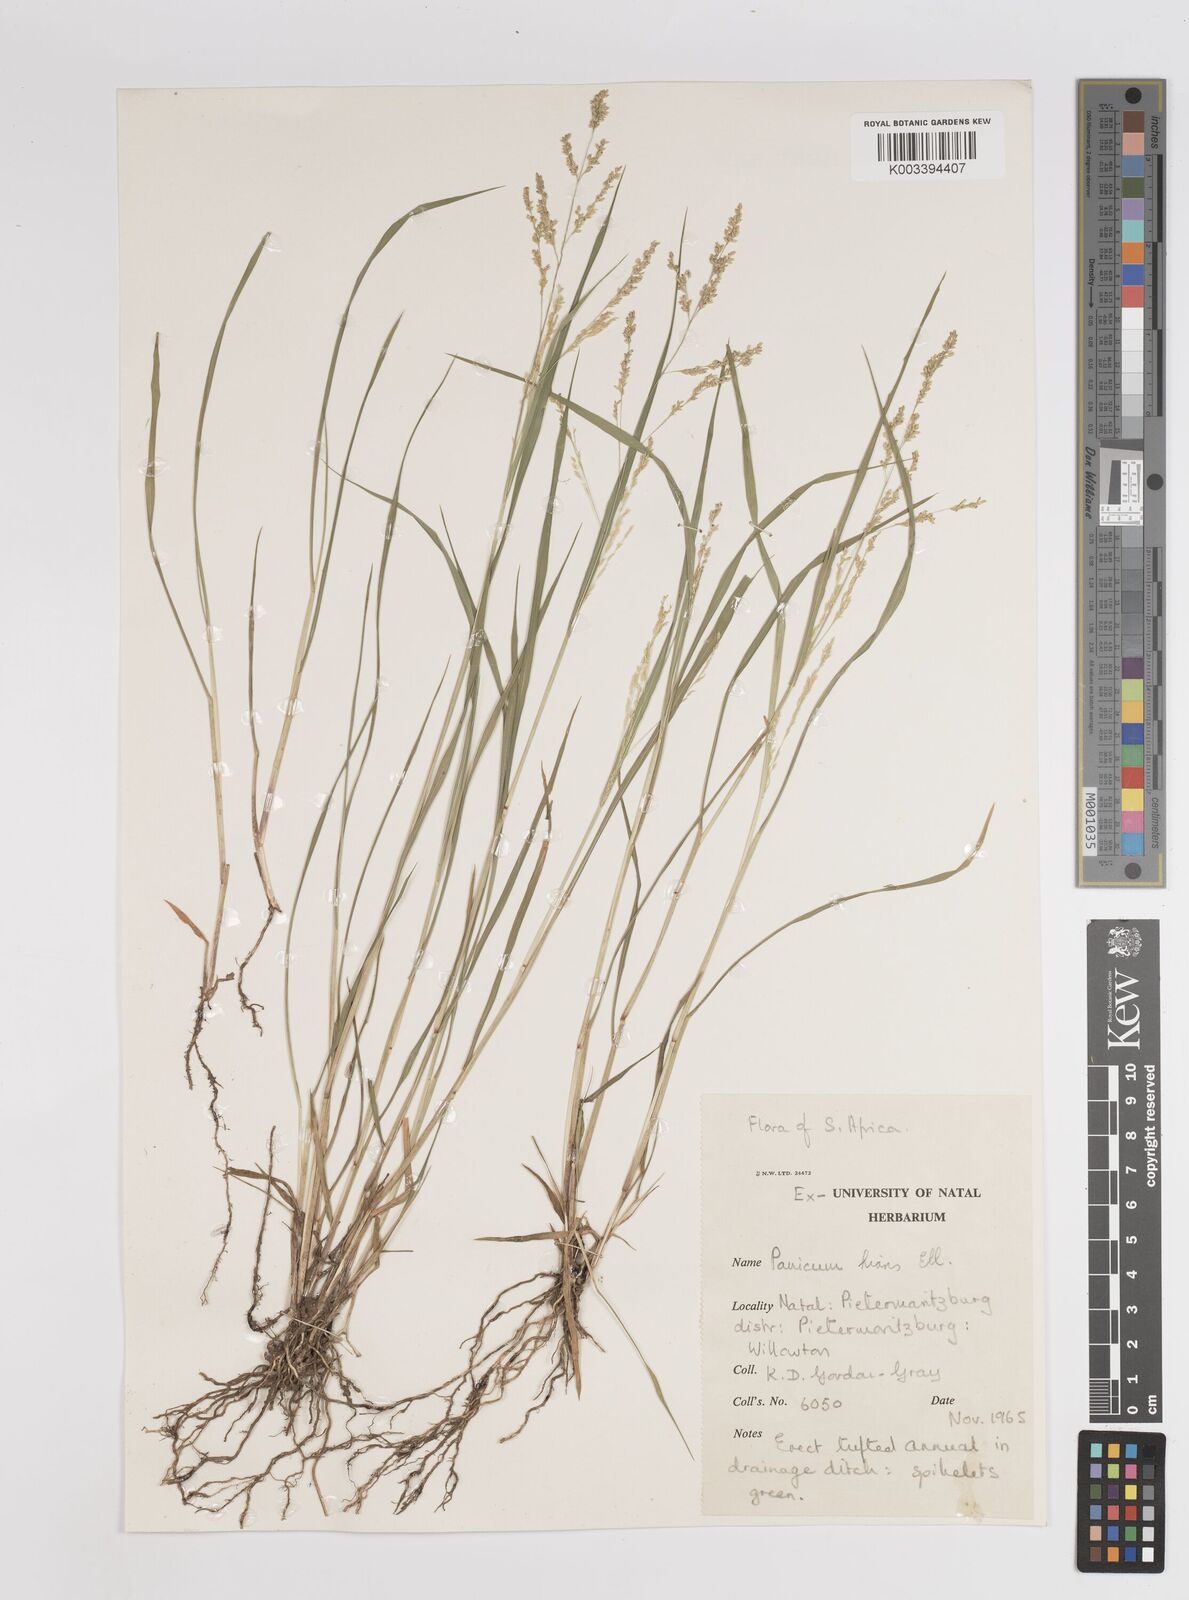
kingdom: Plantae
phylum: Tracheophyta
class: Liliopsida
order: Poales
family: Poaceae
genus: Steinchisma
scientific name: Steinchisma hians
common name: Gaping panic grass
